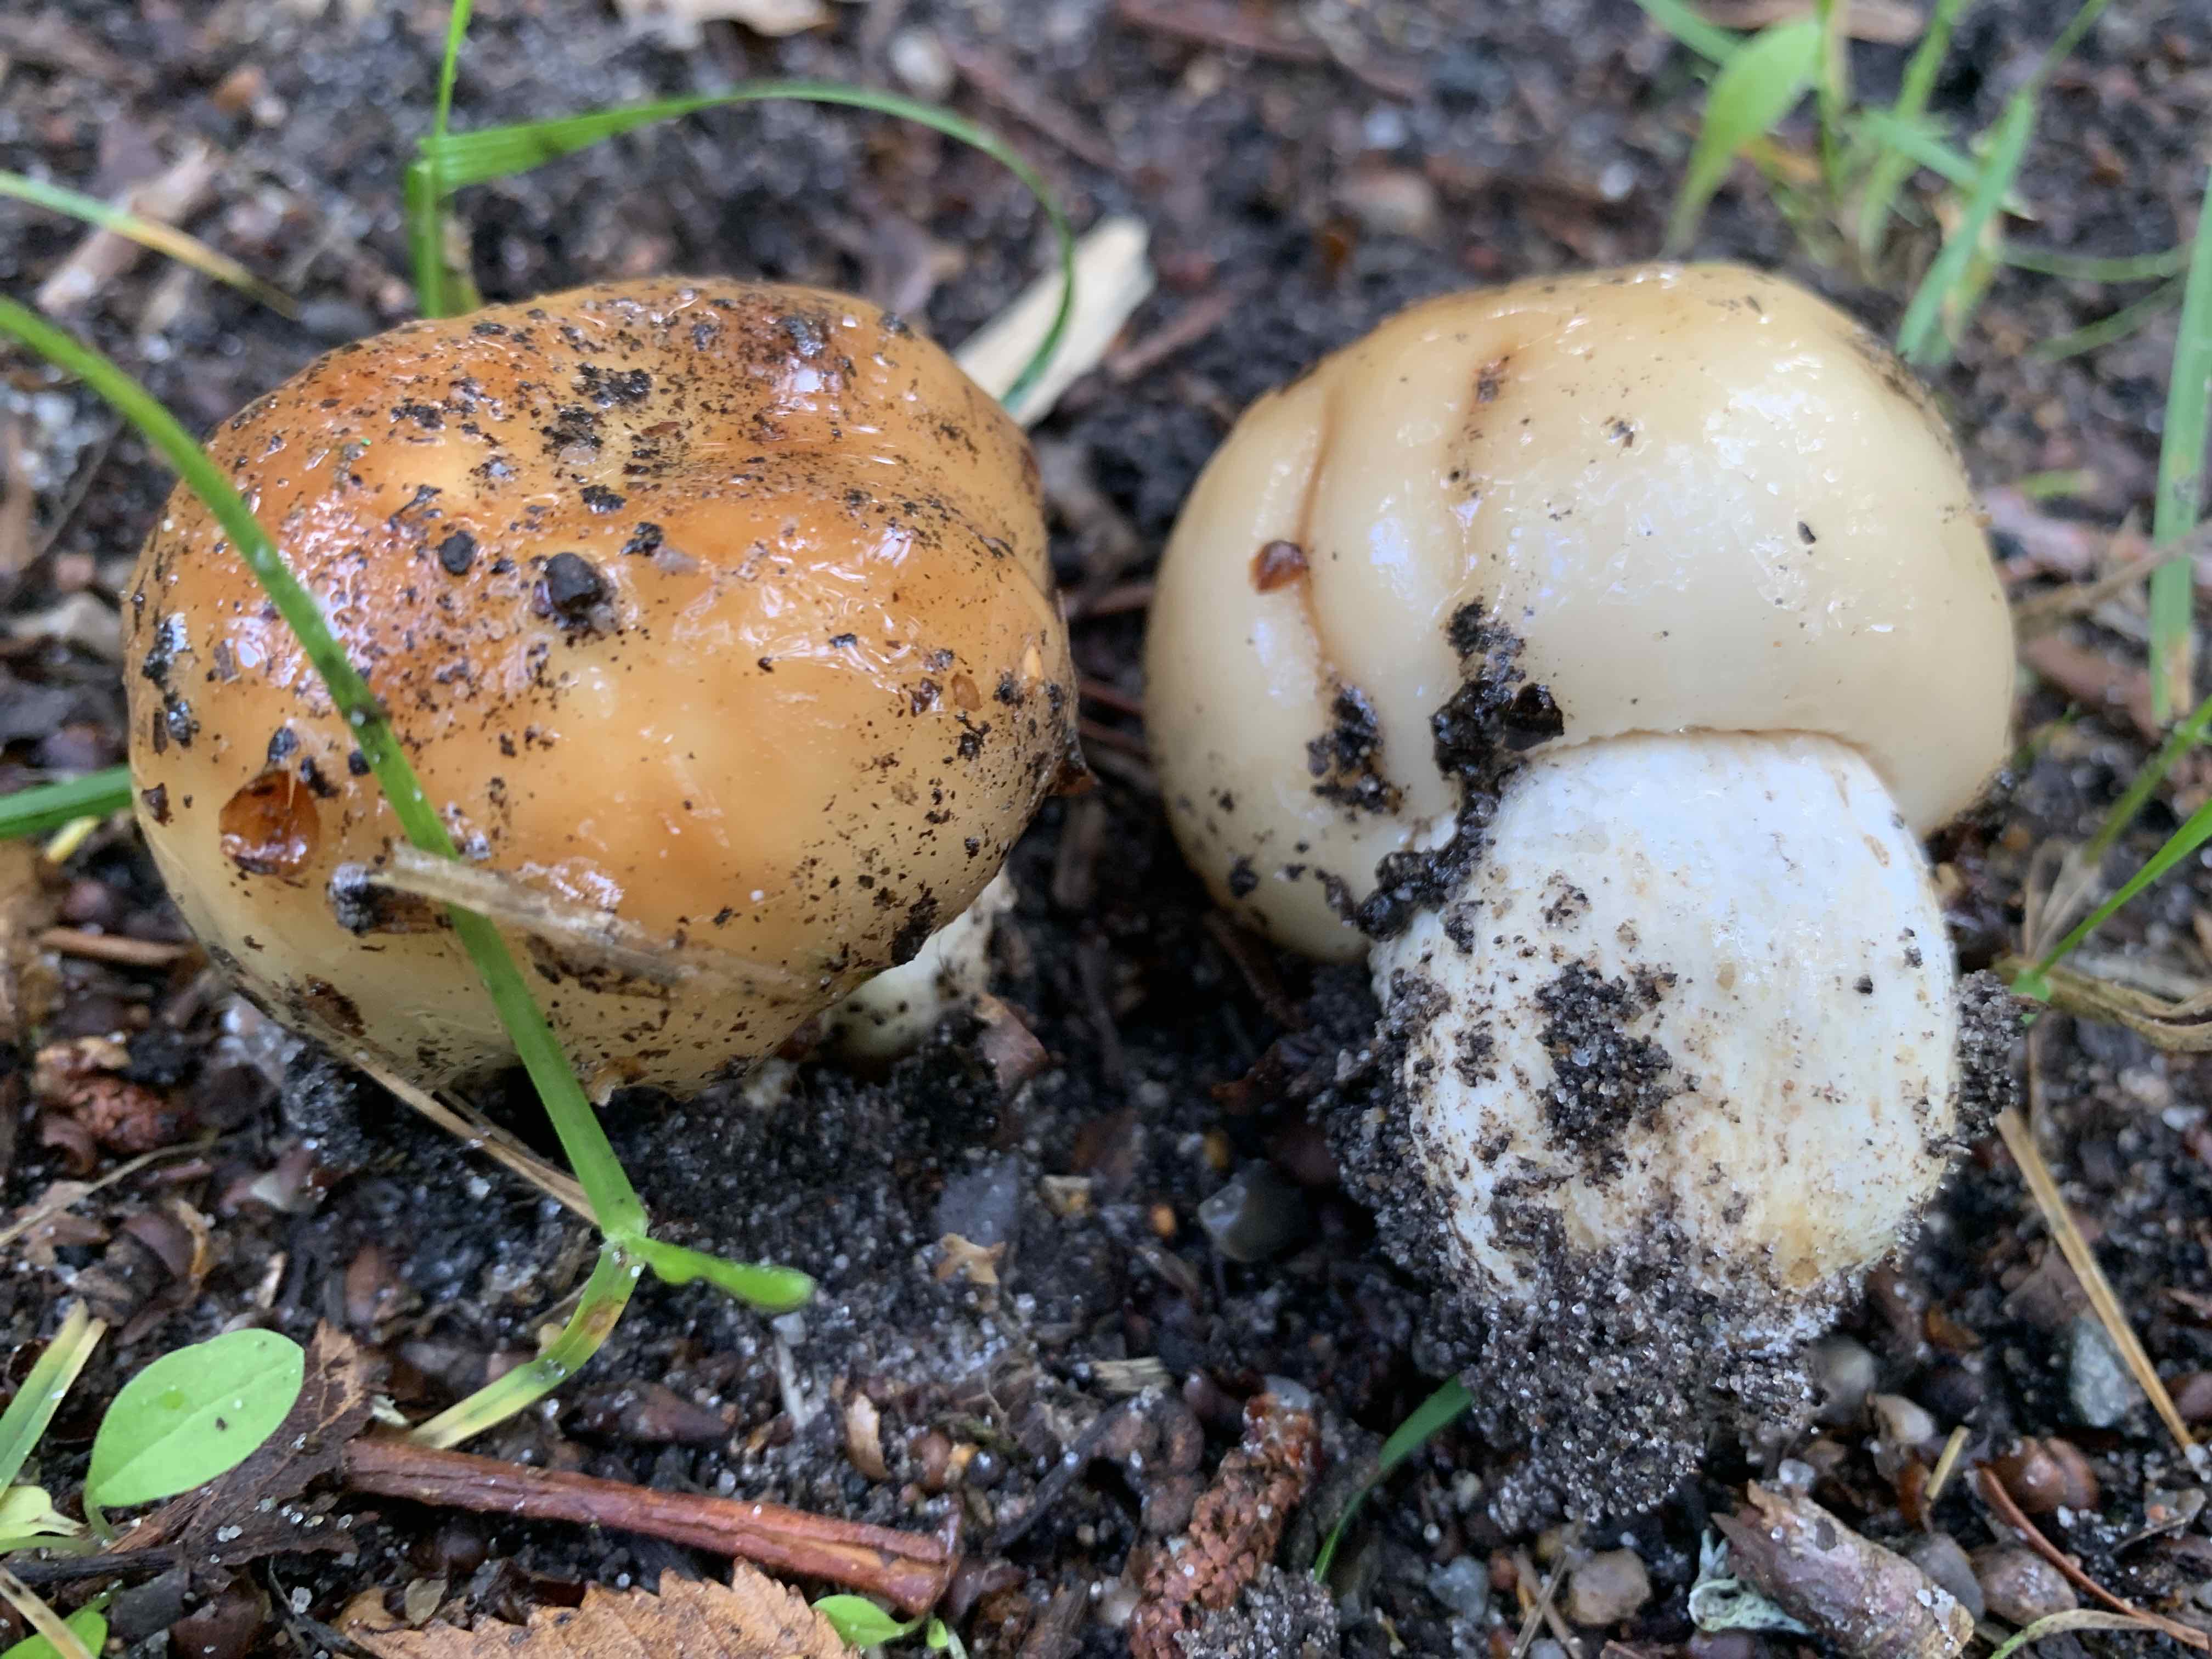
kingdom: Fungi
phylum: Basidiomycota
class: Agaricomycetes
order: Russulales
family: Russulaceae
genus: Russula
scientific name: Russula foetens
